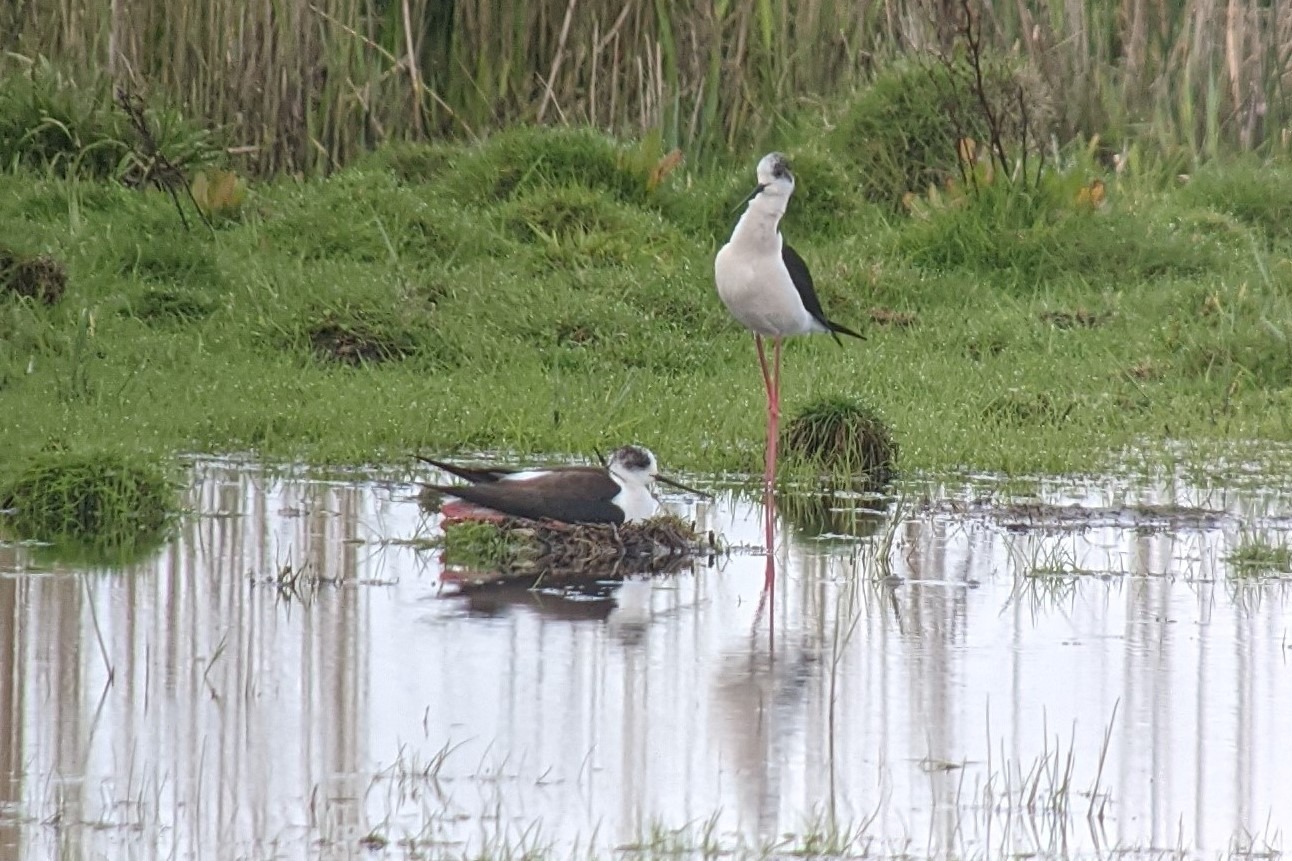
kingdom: Animalia
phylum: Chordata
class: Aves
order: Charadriiformes
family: Recurvirostridae
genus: Himantopus
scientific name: Himantopus himantopus
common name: Stylteløber
